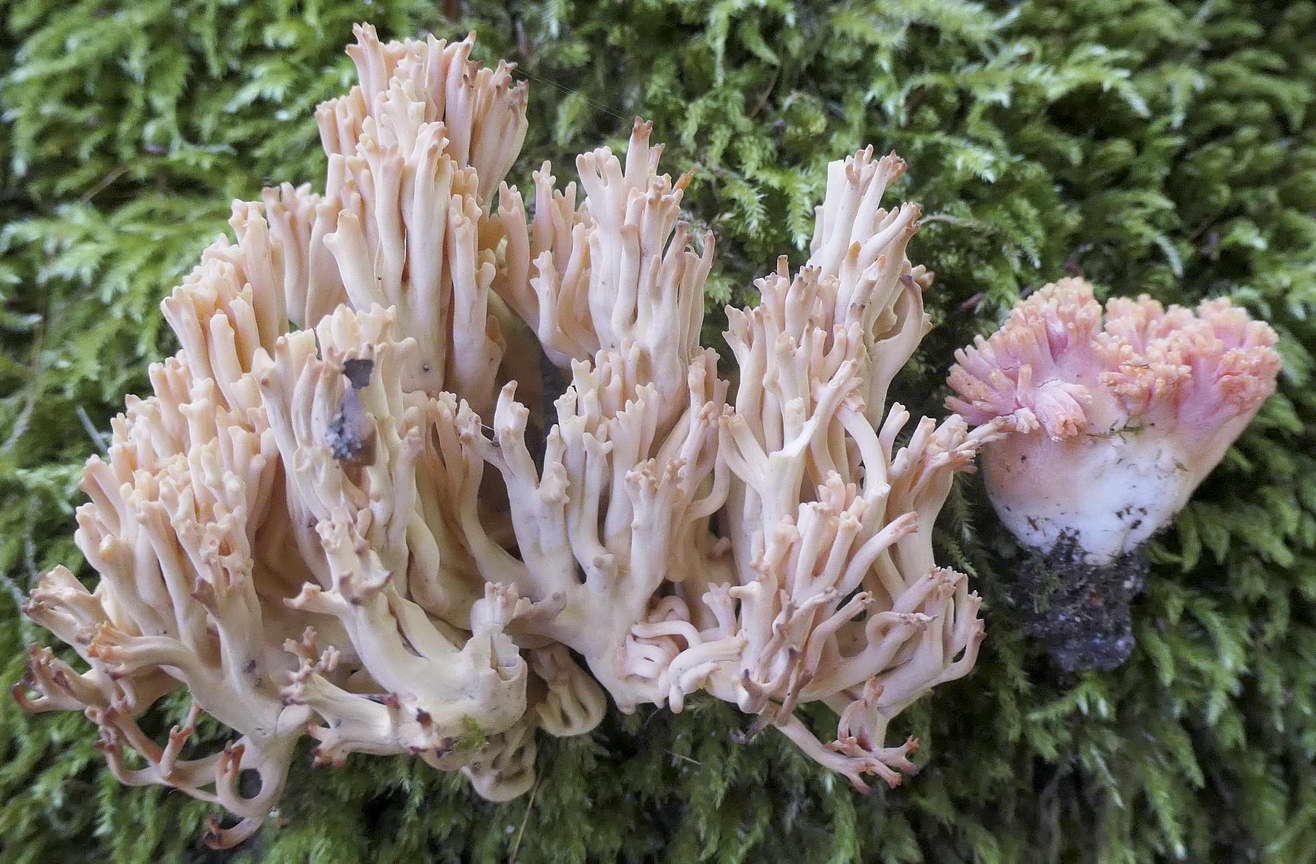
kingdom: Fungi
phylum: Basidiomycota
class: Agaricomycetes
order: Gomphales
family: Gomphaceae
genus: Ramaria
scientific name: Ramaria
